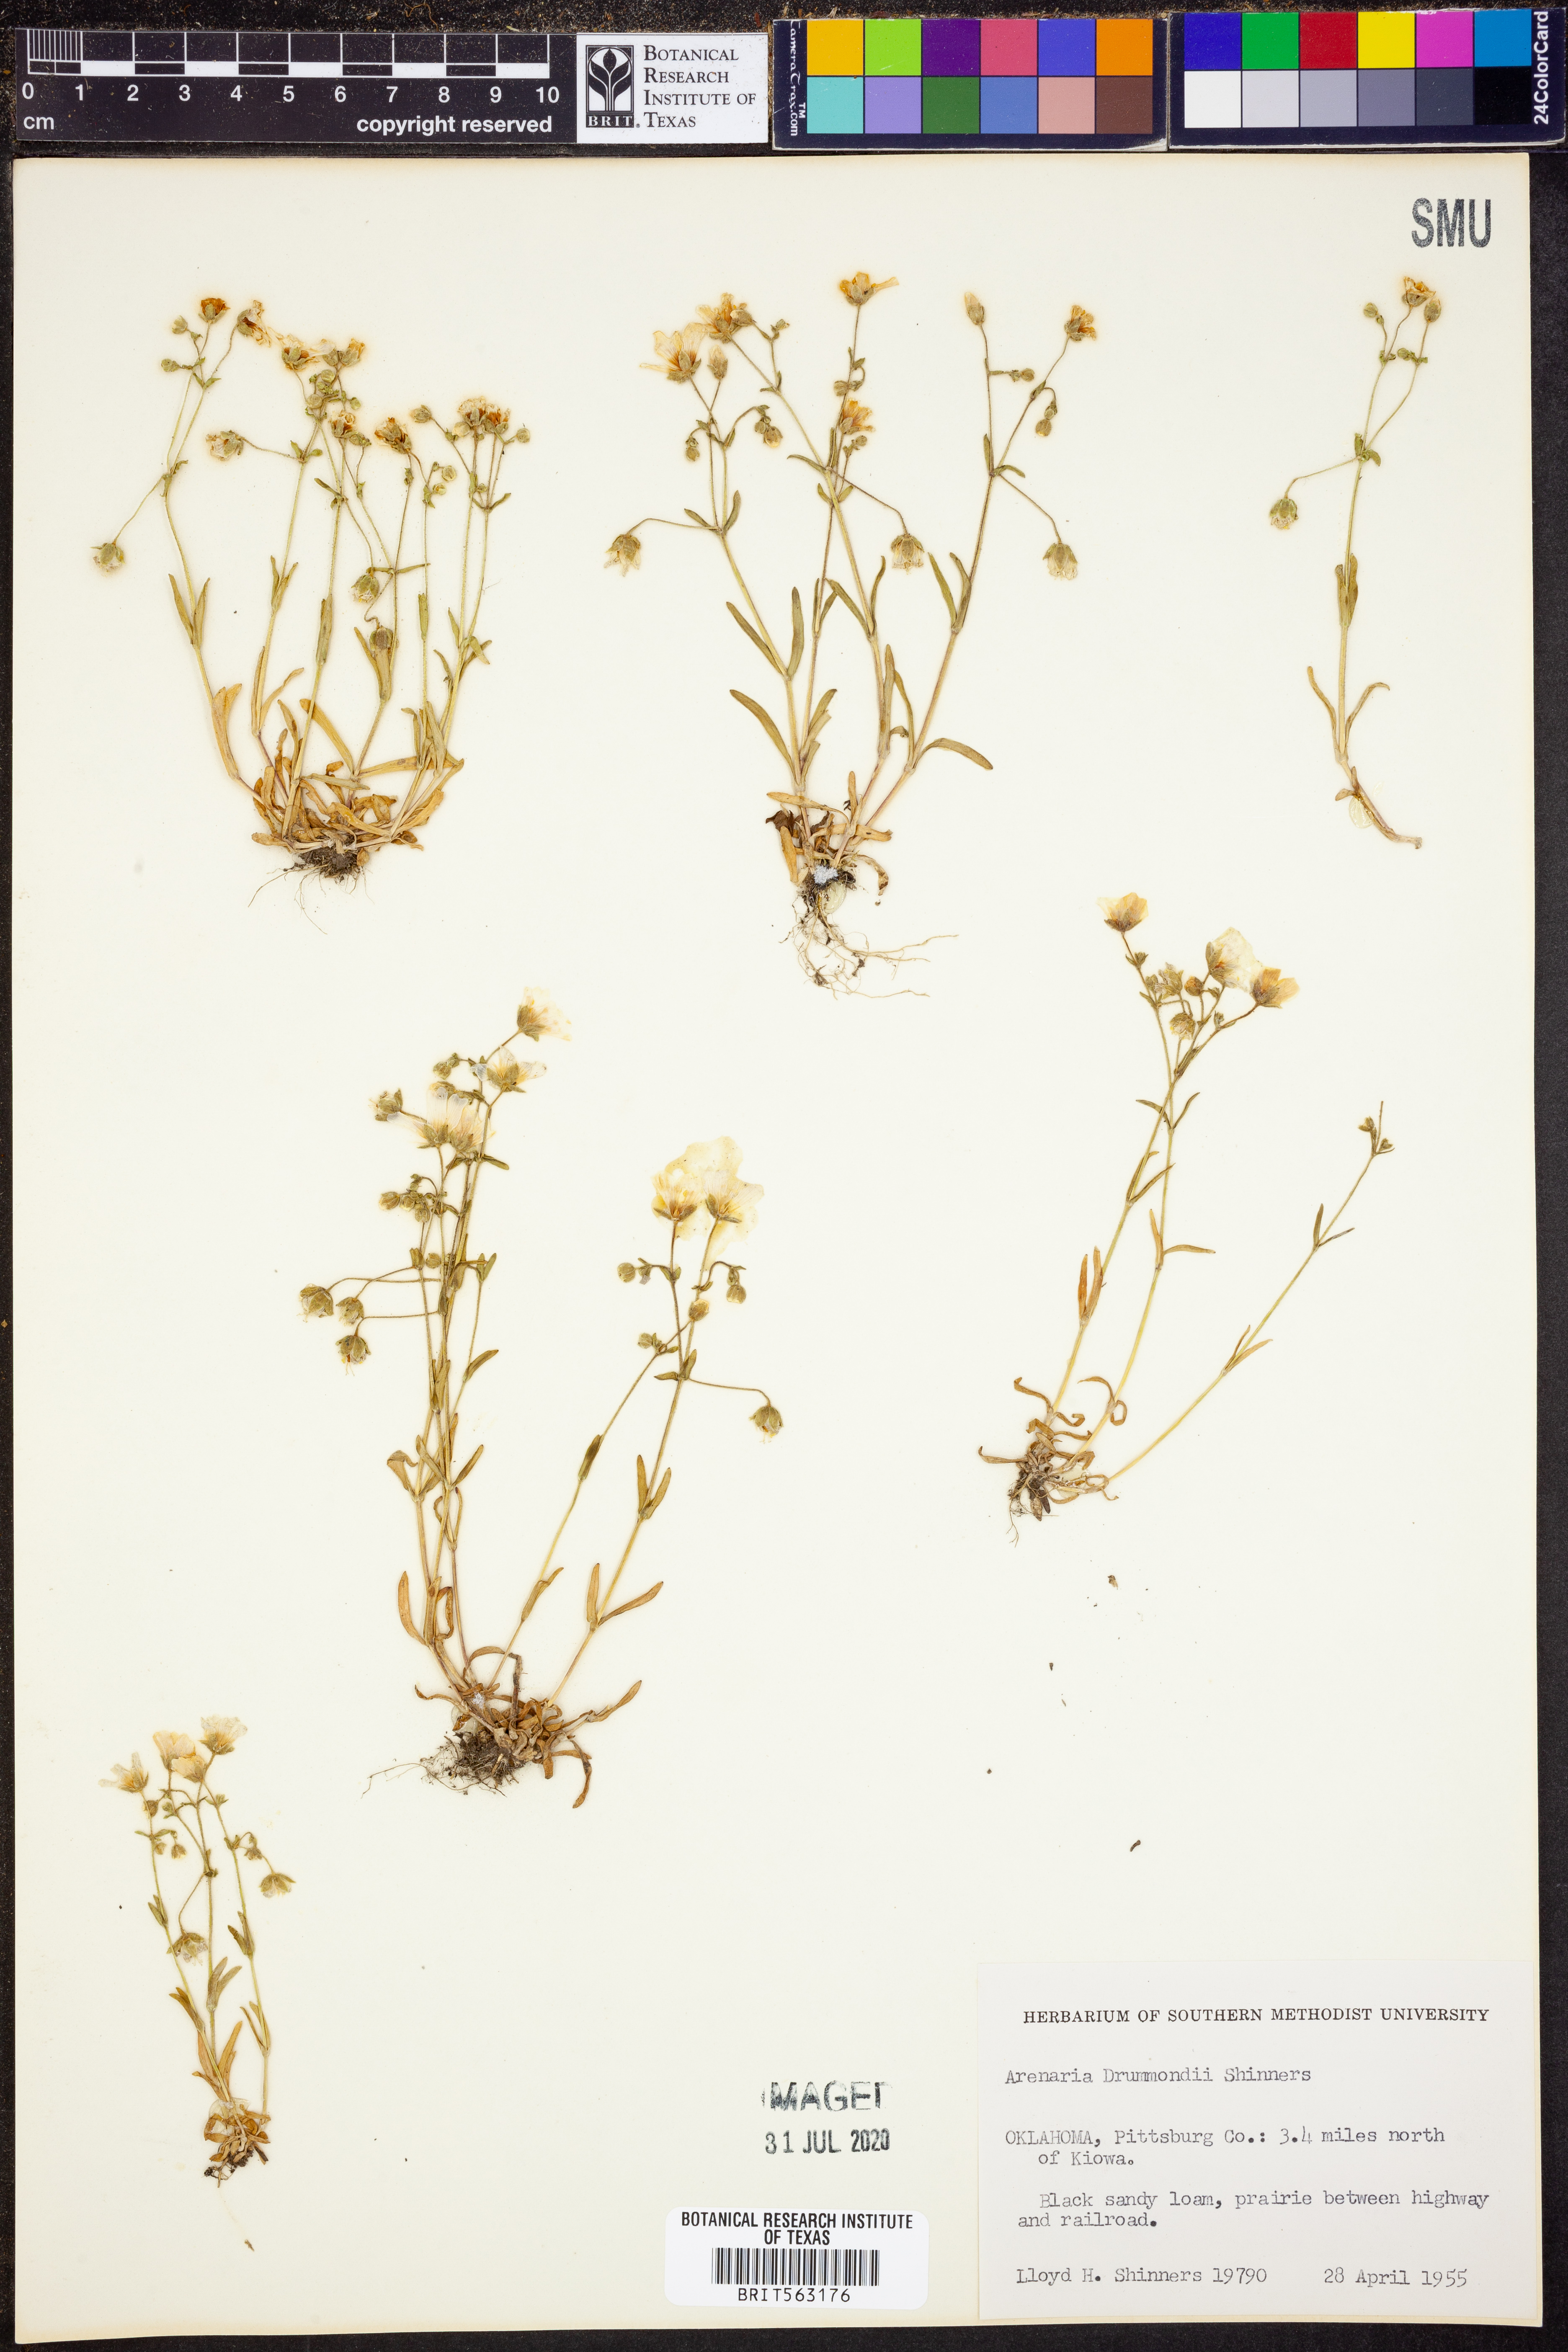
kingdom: Plantae
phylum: Tracheophyta
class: Magnoliopsida
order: Caryophyllales
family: Caryophyllaceae
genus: Geocarpon
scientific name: Geocarpon nuttallii
